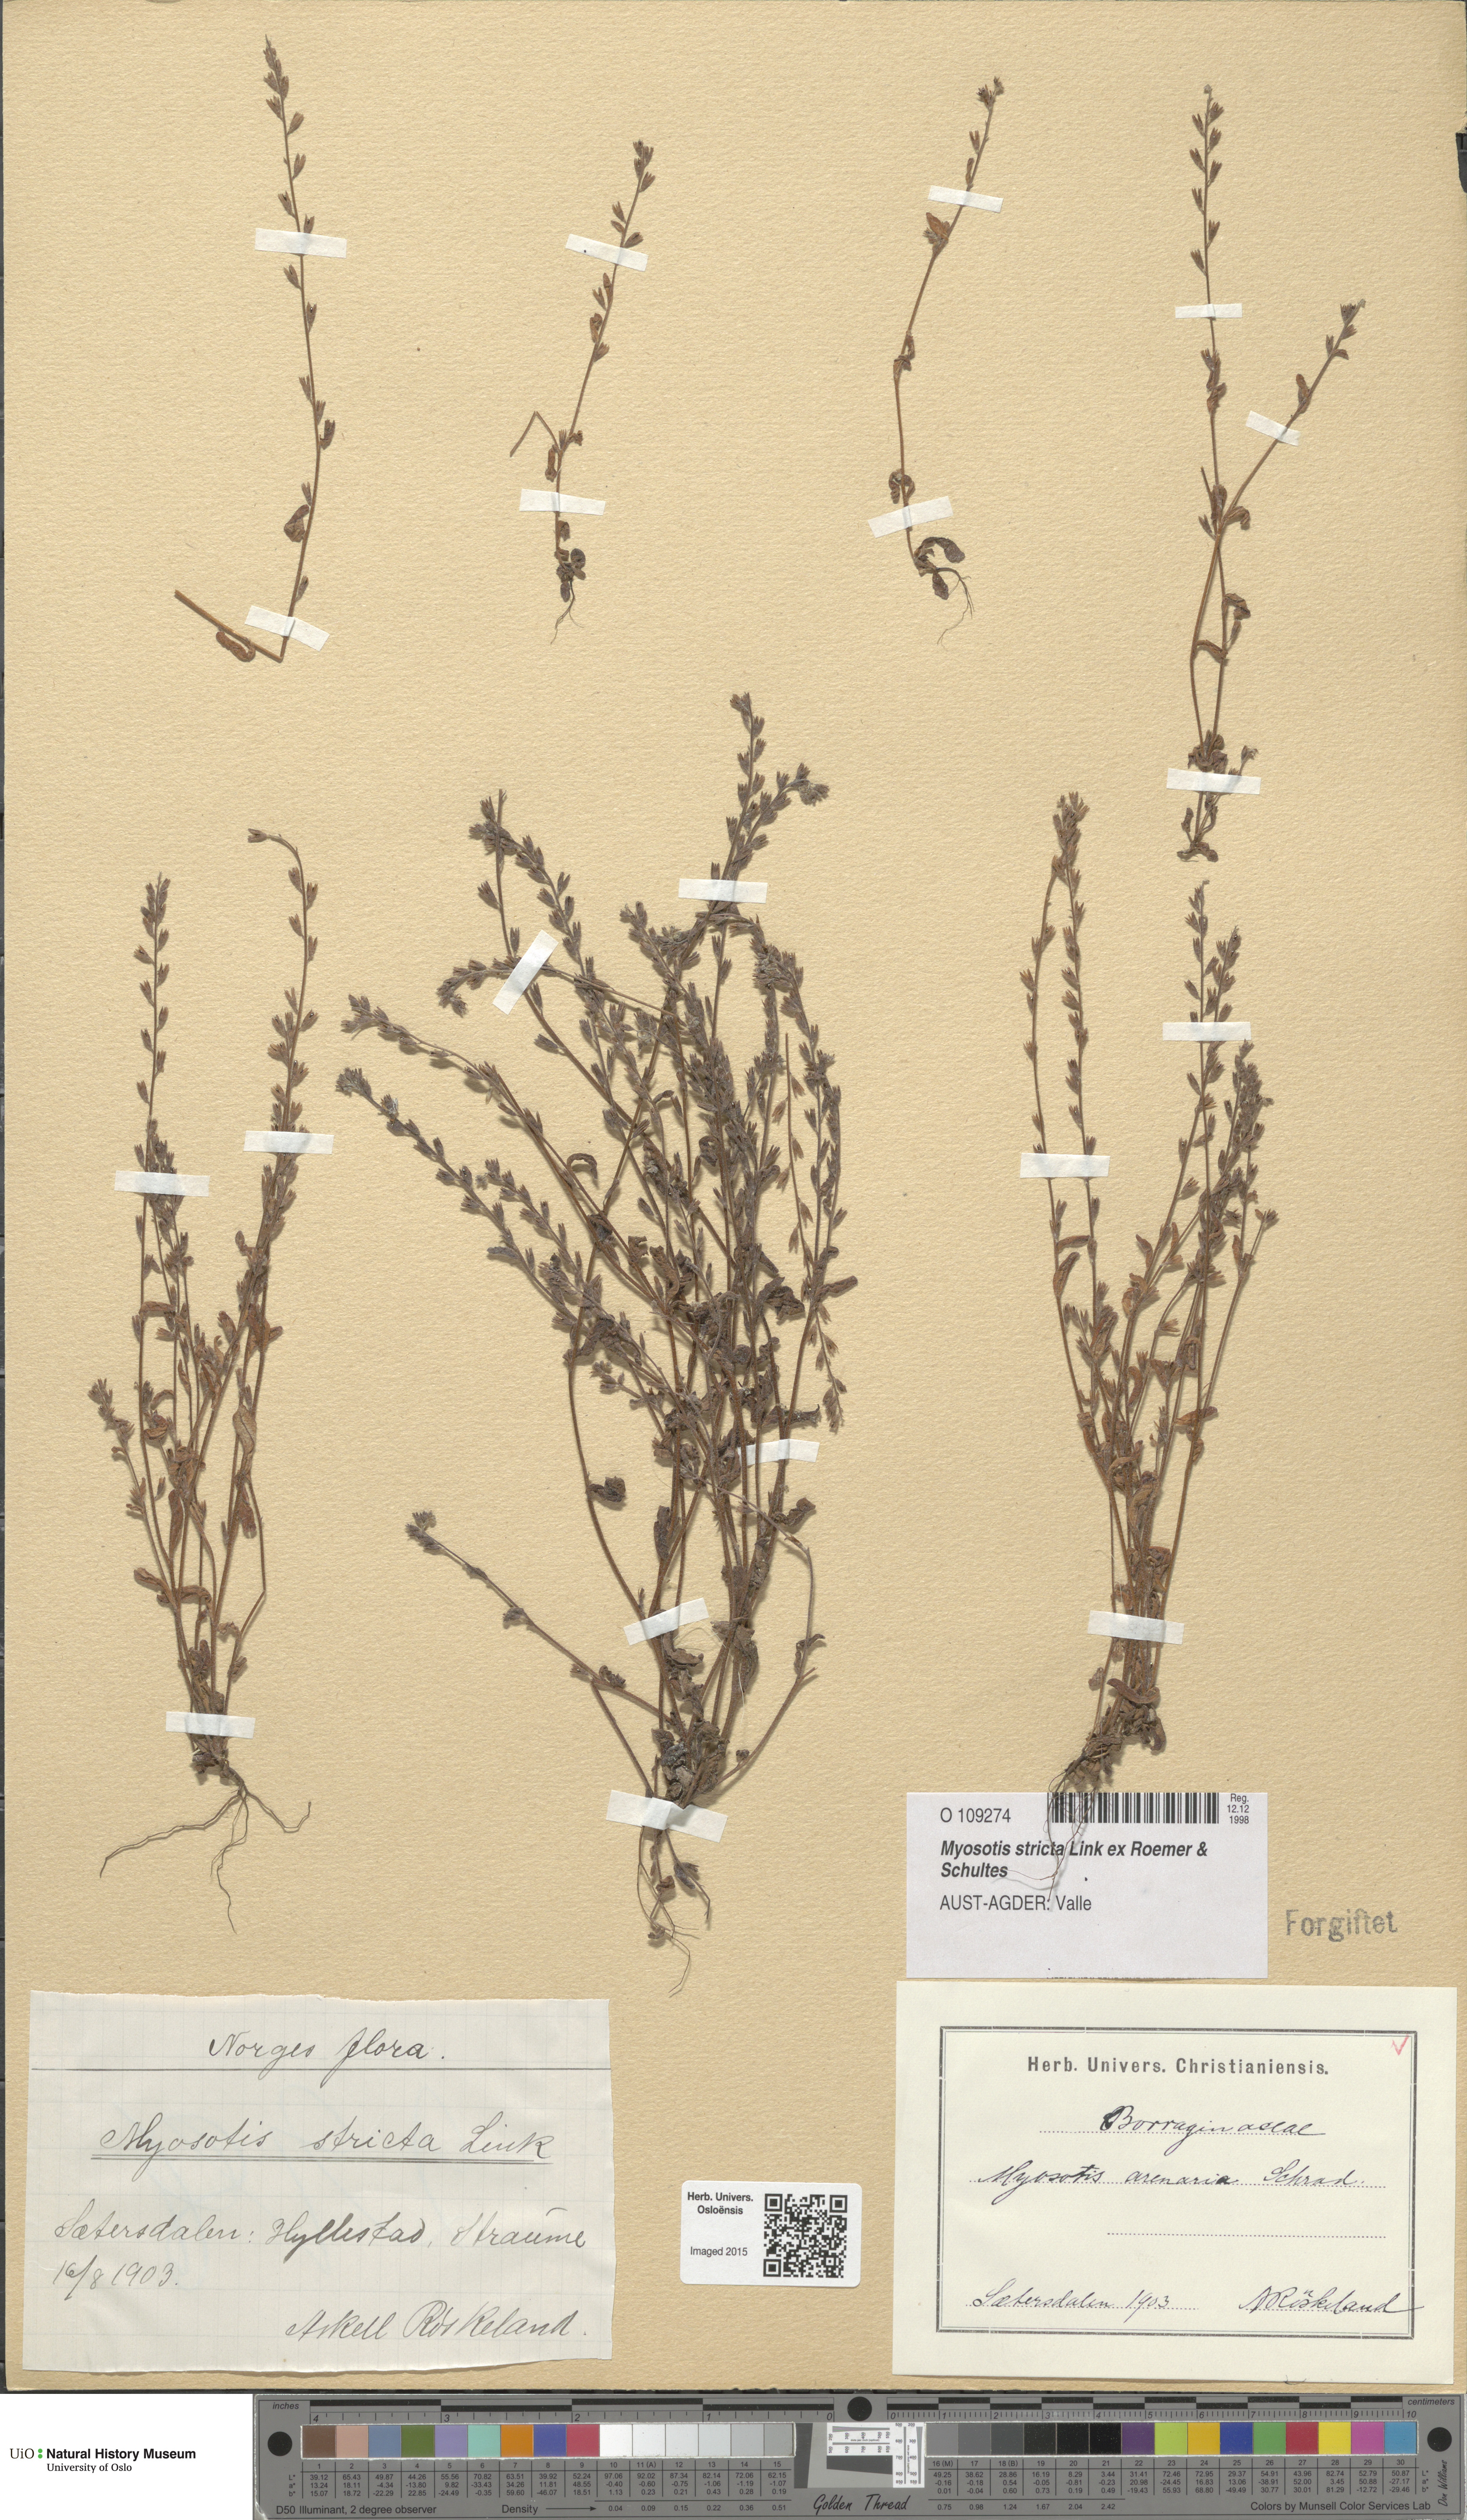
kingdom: Plantae
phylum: Tracheophyta
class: Magnoliopsida
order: Boraginales
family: Boraginaceae
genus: Myosotis
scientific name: Myosotis stricta
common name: Strict forget-me-not
